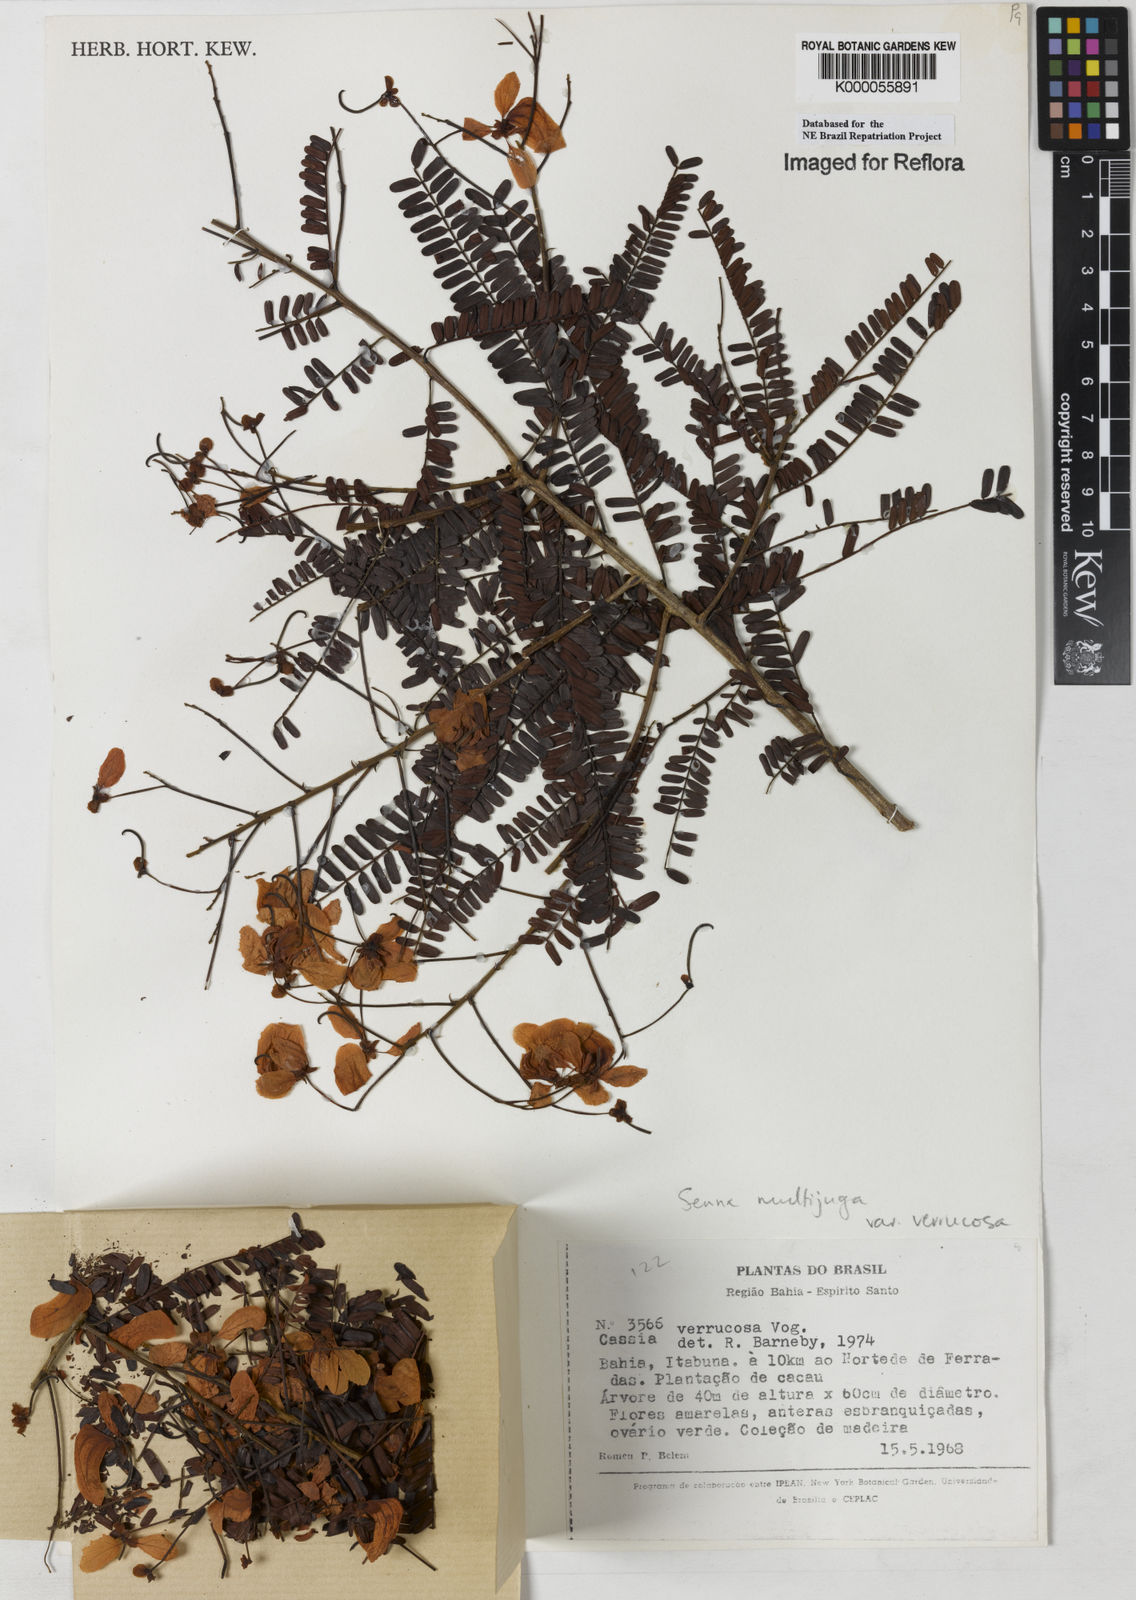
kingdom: Plantae
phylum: Tracheophyta
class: Magnoliopsida
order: Fabales
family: Fabaceae
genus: Senna
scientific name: Senna multijuga
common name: False sicklepod
